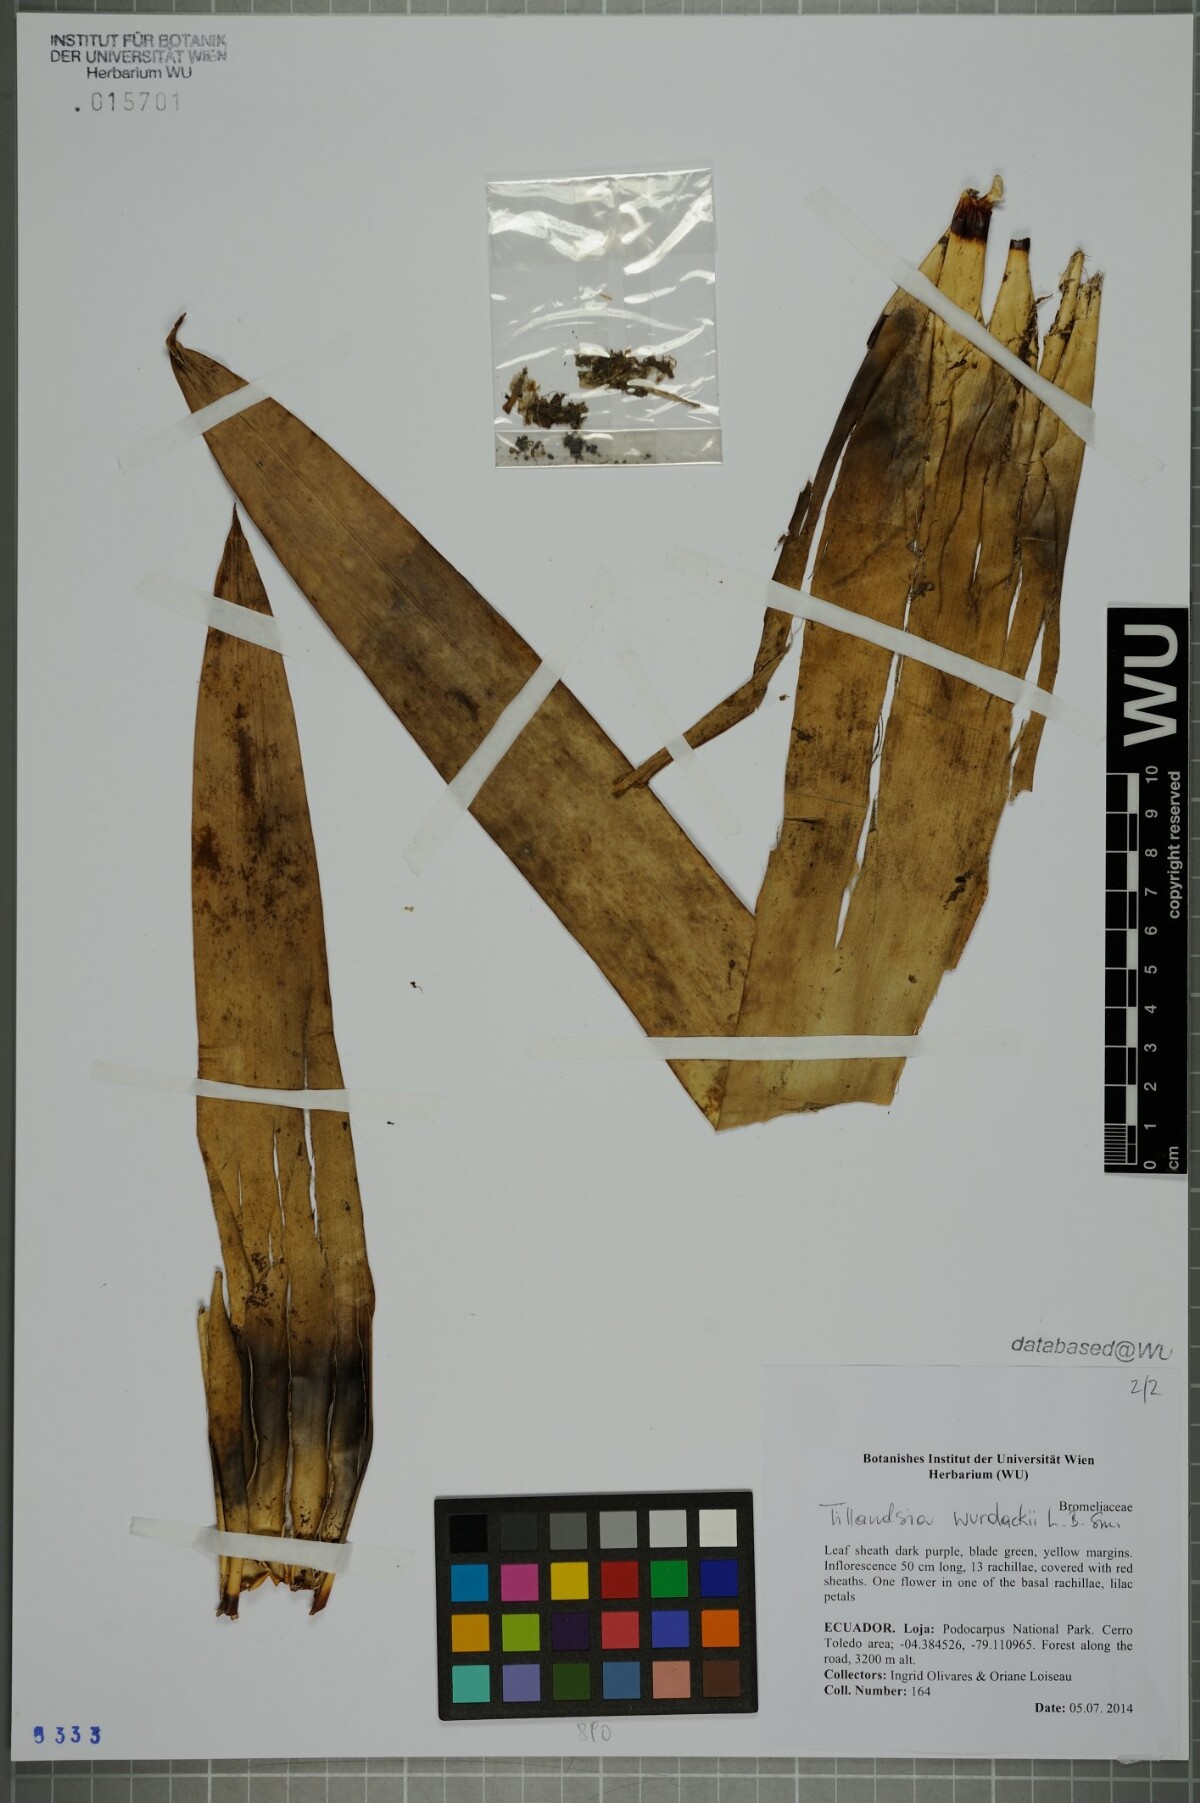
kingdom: Plantae
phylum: Tracheophyta
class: Liliopsida
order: Poales
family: Bromeliaceae
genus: Tillandsia
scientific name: Tillandsia wurdackii
